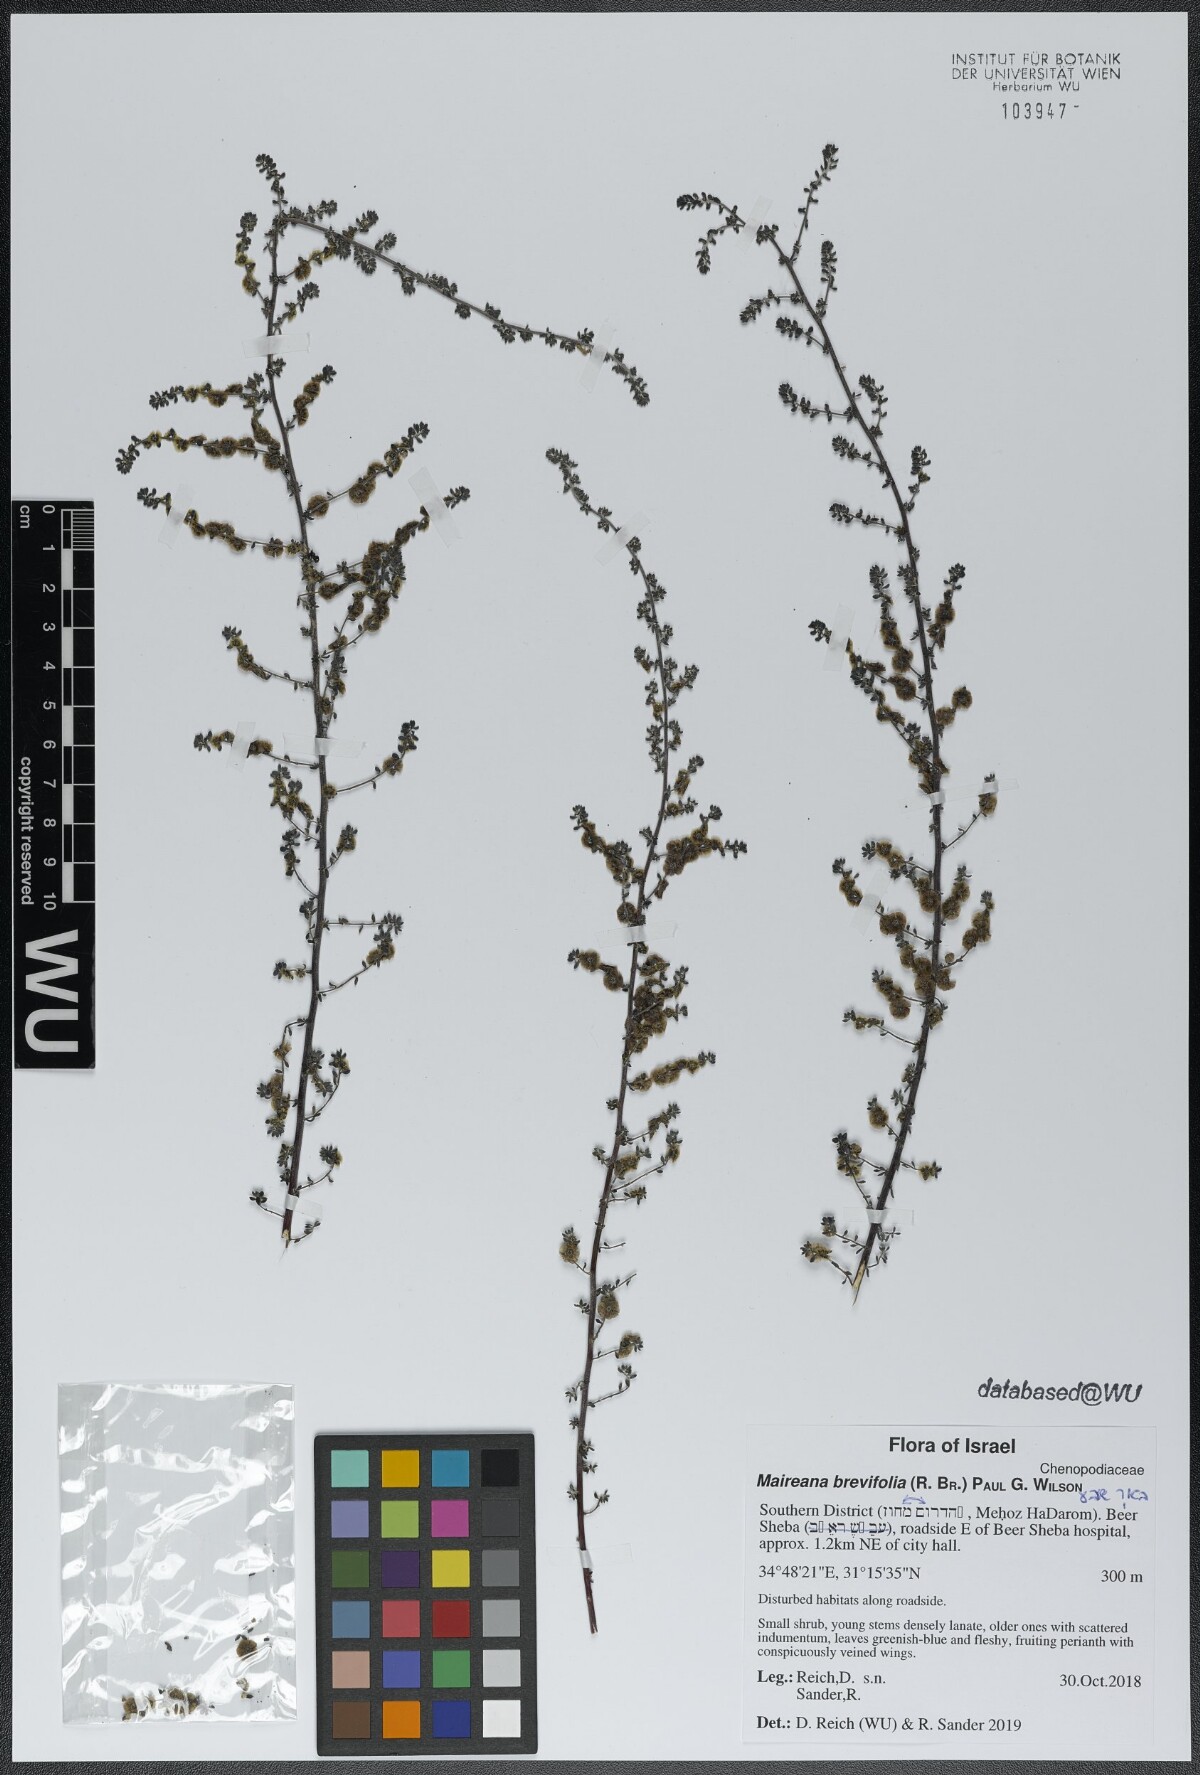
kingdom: Plantae
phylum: Tracheophyta
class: Magnoliopsida
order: Caryophyllales
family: Amaranthaceae
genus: Maireana
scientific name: Maireana brevifolia
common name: Eastern cottonbush
